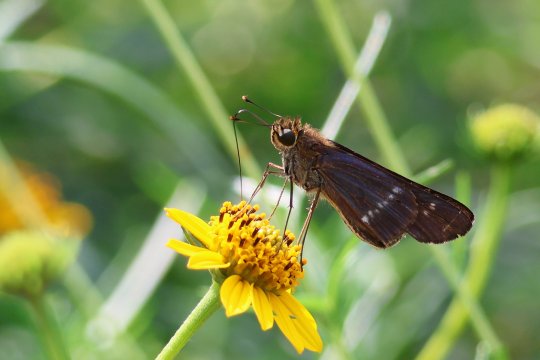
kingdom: Animalia
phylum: Arthropoda
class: Insecta
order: Lepidoptera
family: Hesperiidae
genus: Turesis
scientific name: Turesis lucas
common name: Purple-washed Skipper
